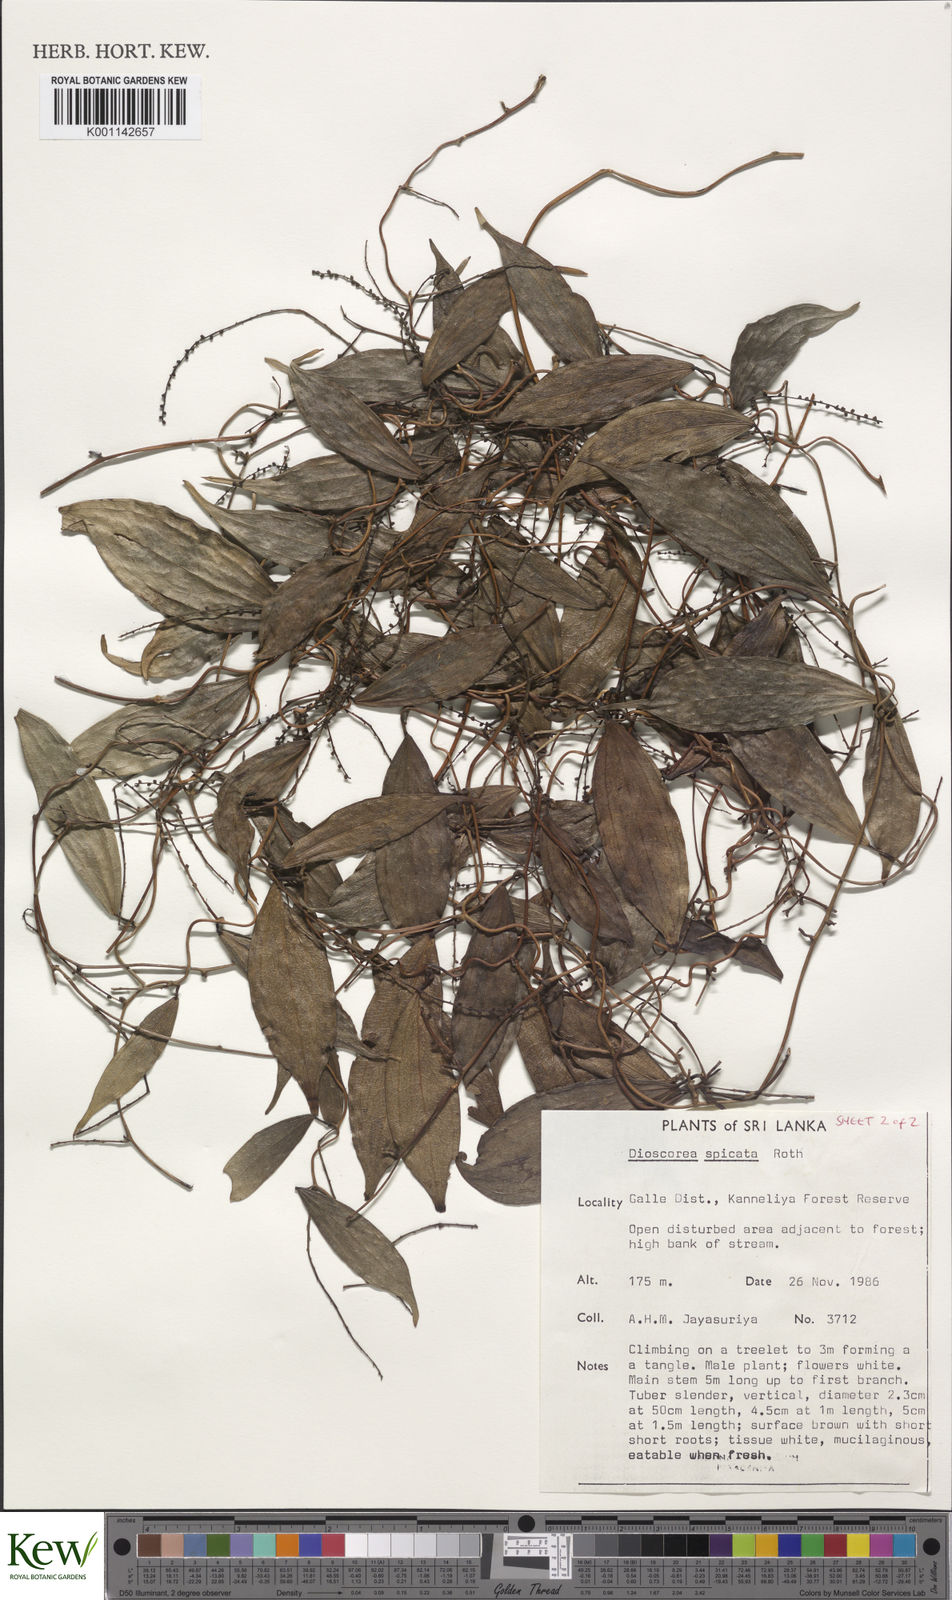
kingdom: Plantae
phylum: Tracheophyta
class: Liliopsida
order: Dioscoreales
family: Dioscoreaceae
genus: Dioscorea
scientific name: Dioscorea spicata
